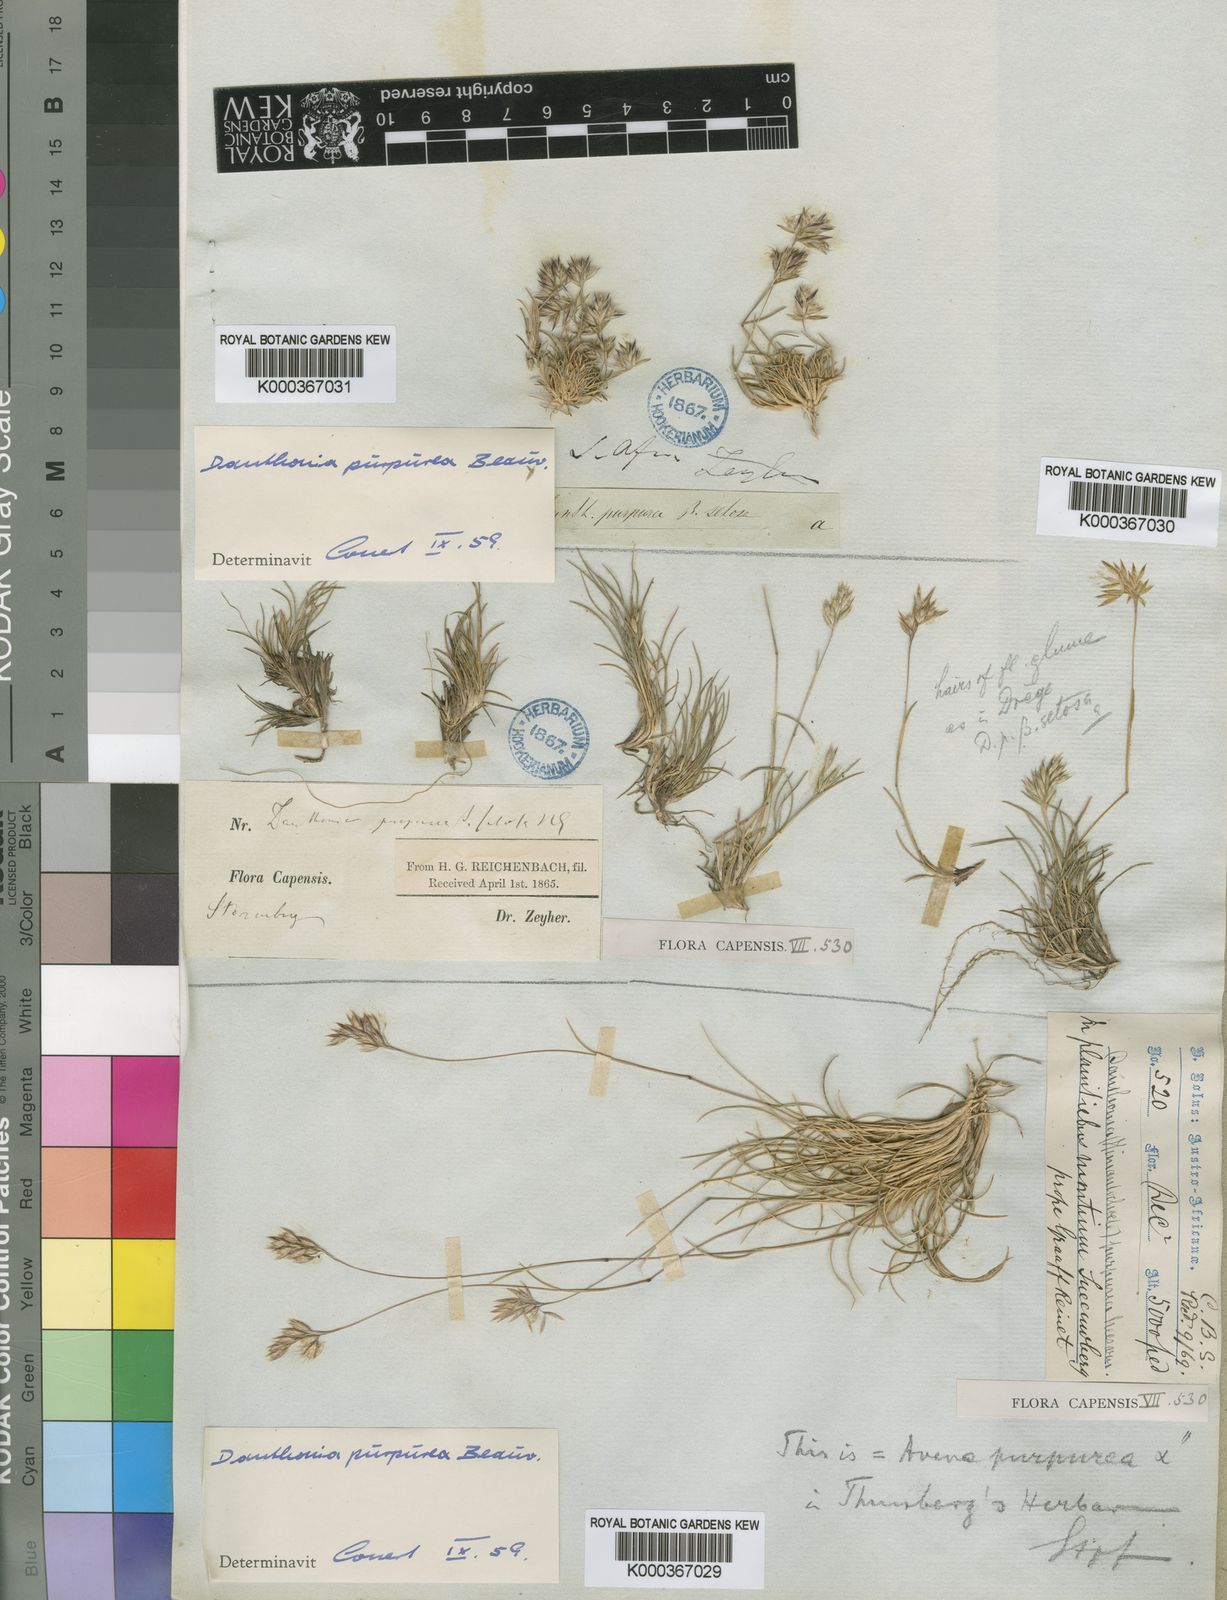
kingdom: Plantae
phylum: Tracheophyta
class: Liliopsida
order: Poales
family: Poaceae
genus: Rytidosperma
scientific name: Rytidosperma
